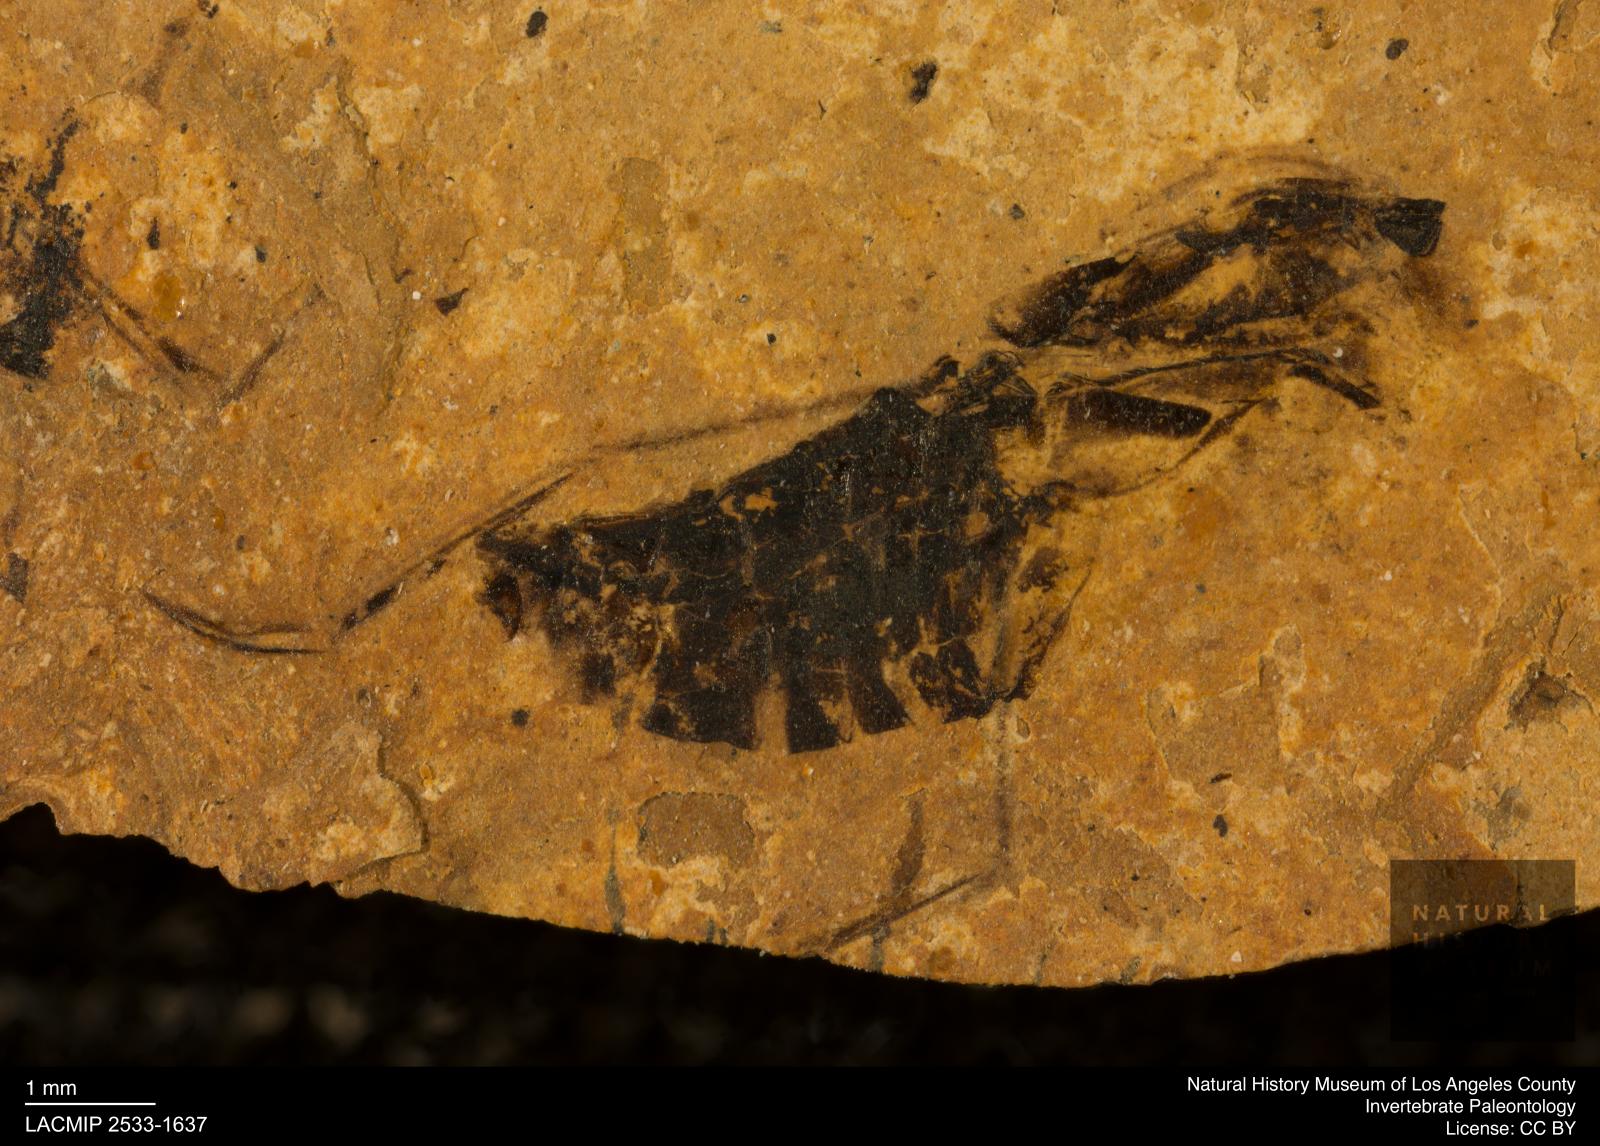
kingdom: Animalia
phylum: Arthropoda
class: Insecta
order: Hemiptera
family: Notonectidae
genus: Notonecta
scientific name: Notonecta
